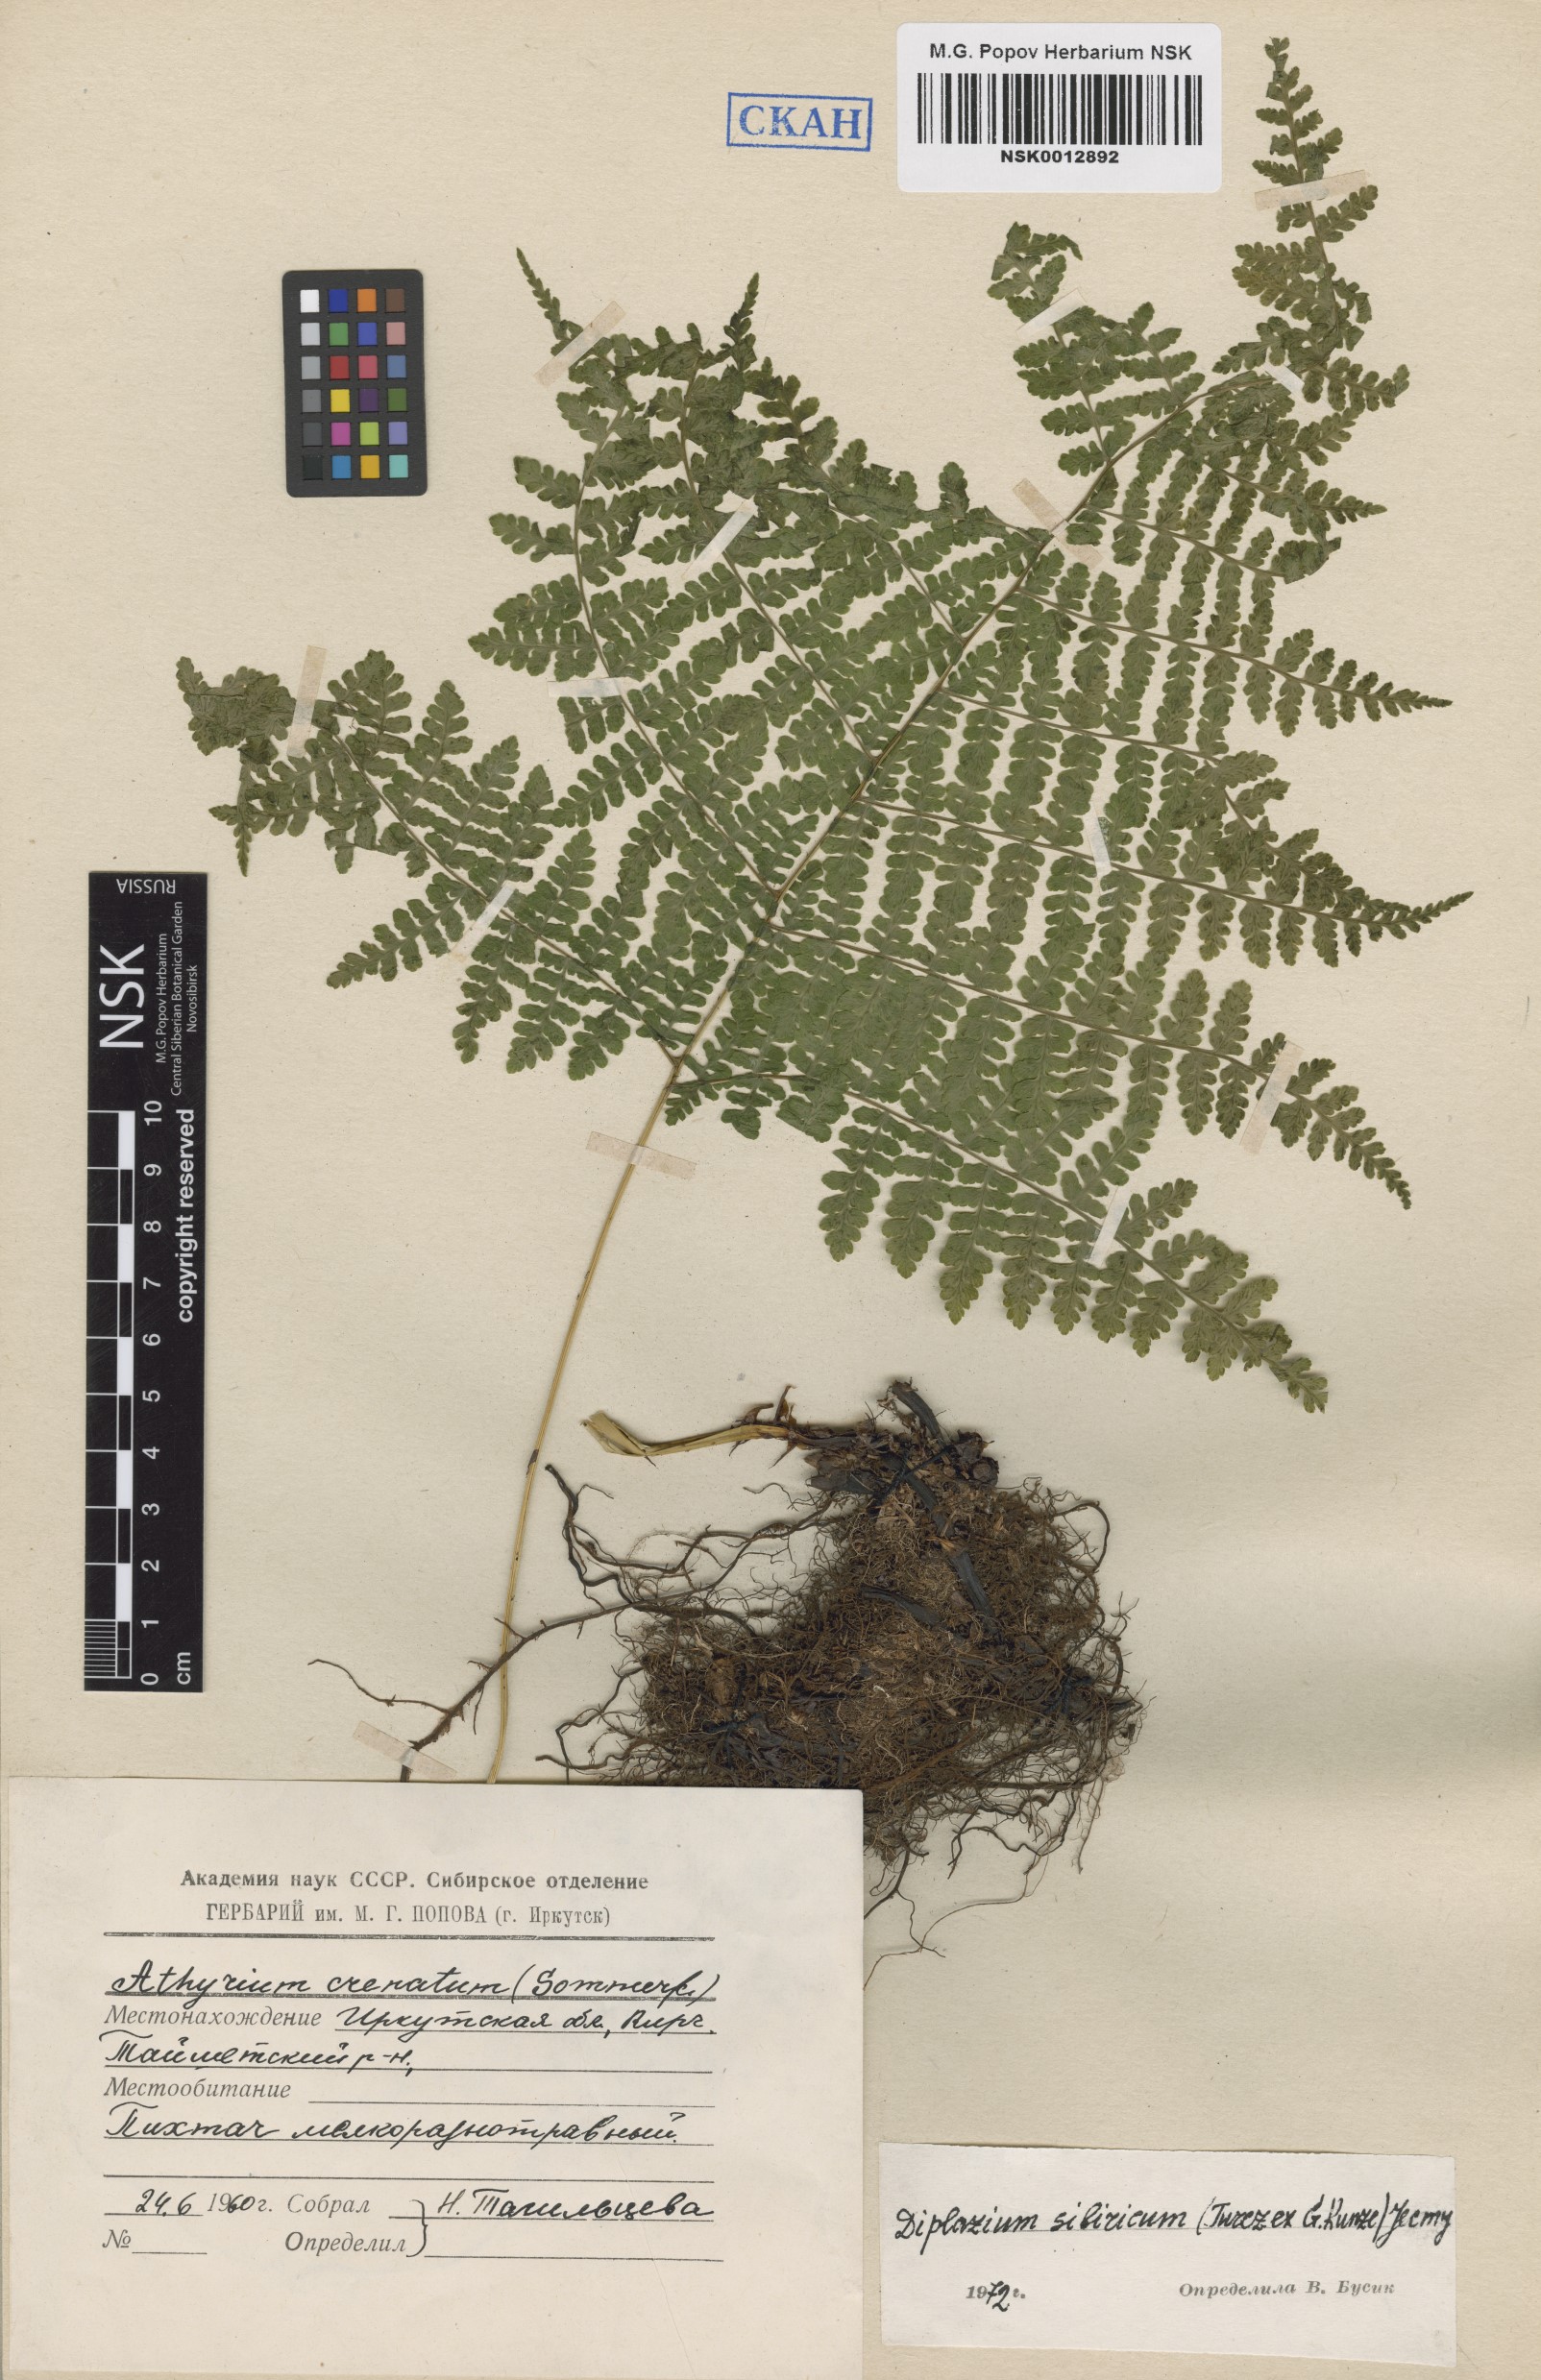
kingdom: Plantae
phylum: Tracheophyta
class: Polypodiopsida
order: Polypodiales
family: Athyriaceae
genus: Diplazium
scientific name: Diplazium sibiricum
